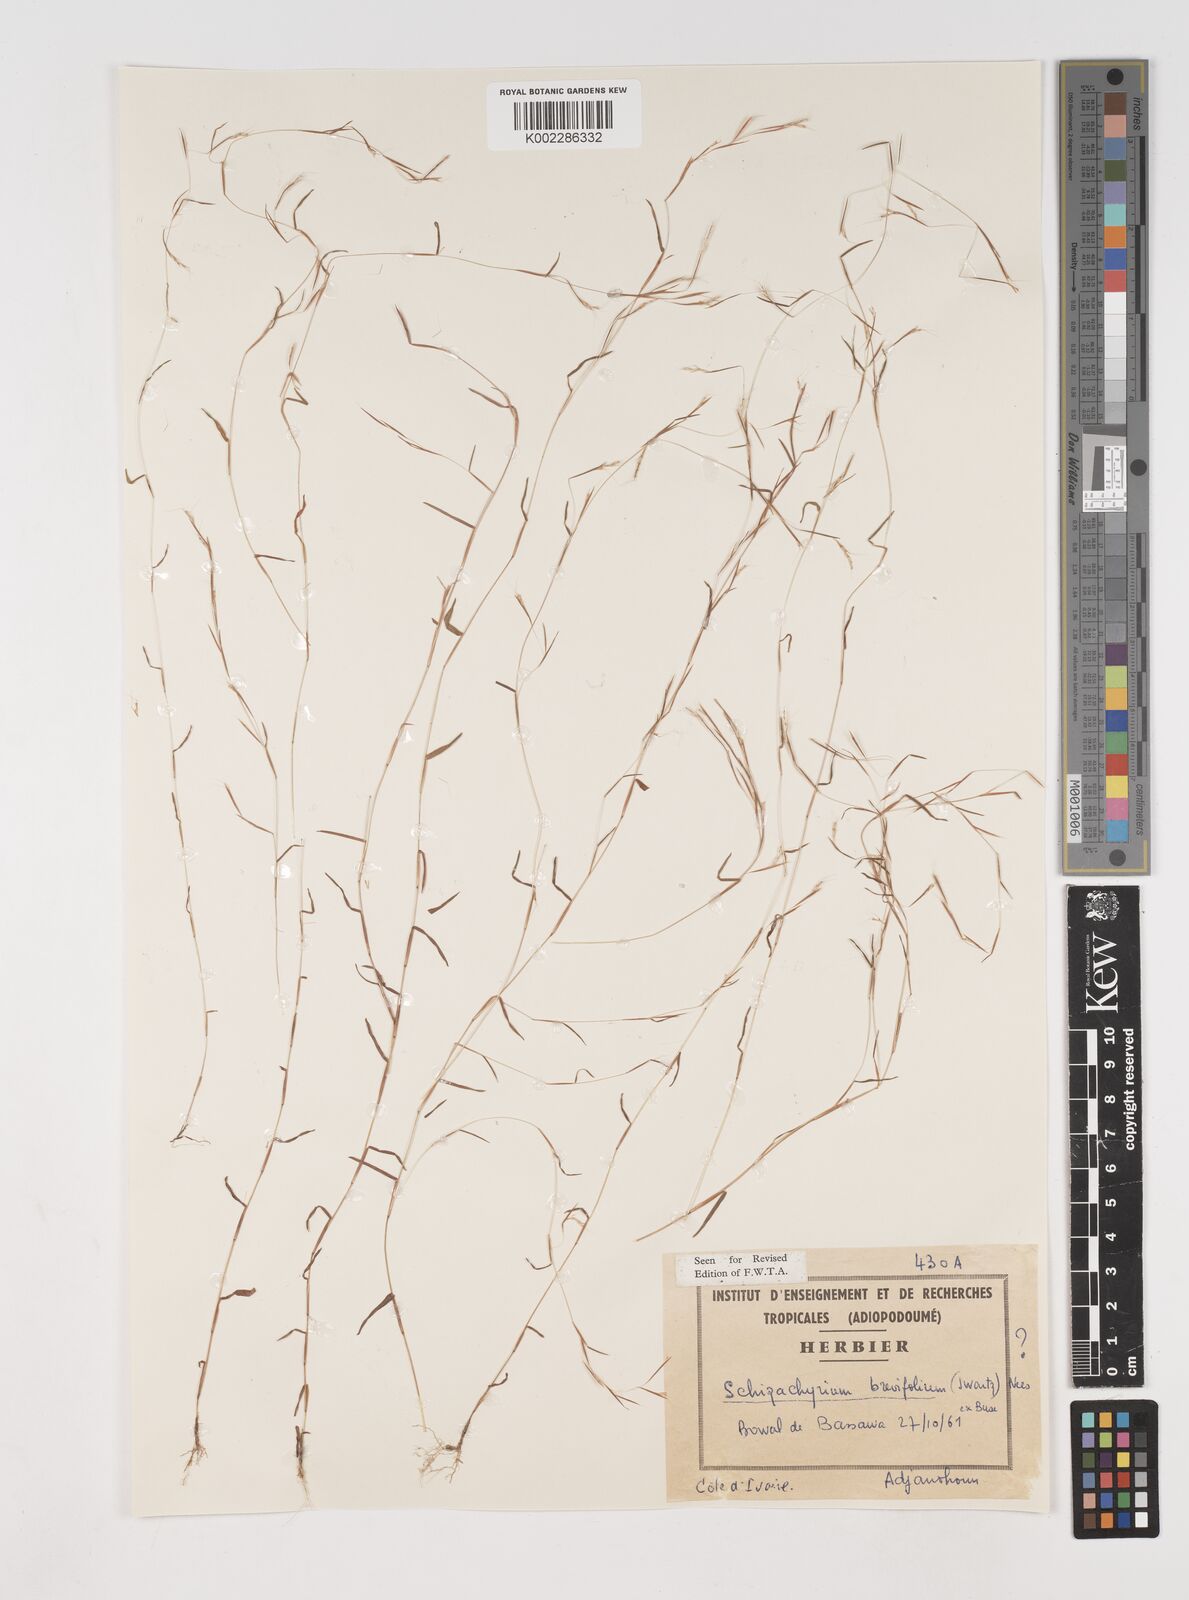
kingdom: Plantae
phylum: Tracheophyta
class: Liliopsida
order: Poales
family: Poaceae
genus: Schizachyrium
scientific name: Schizachyrium brevifolium
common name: Serillo dulce
